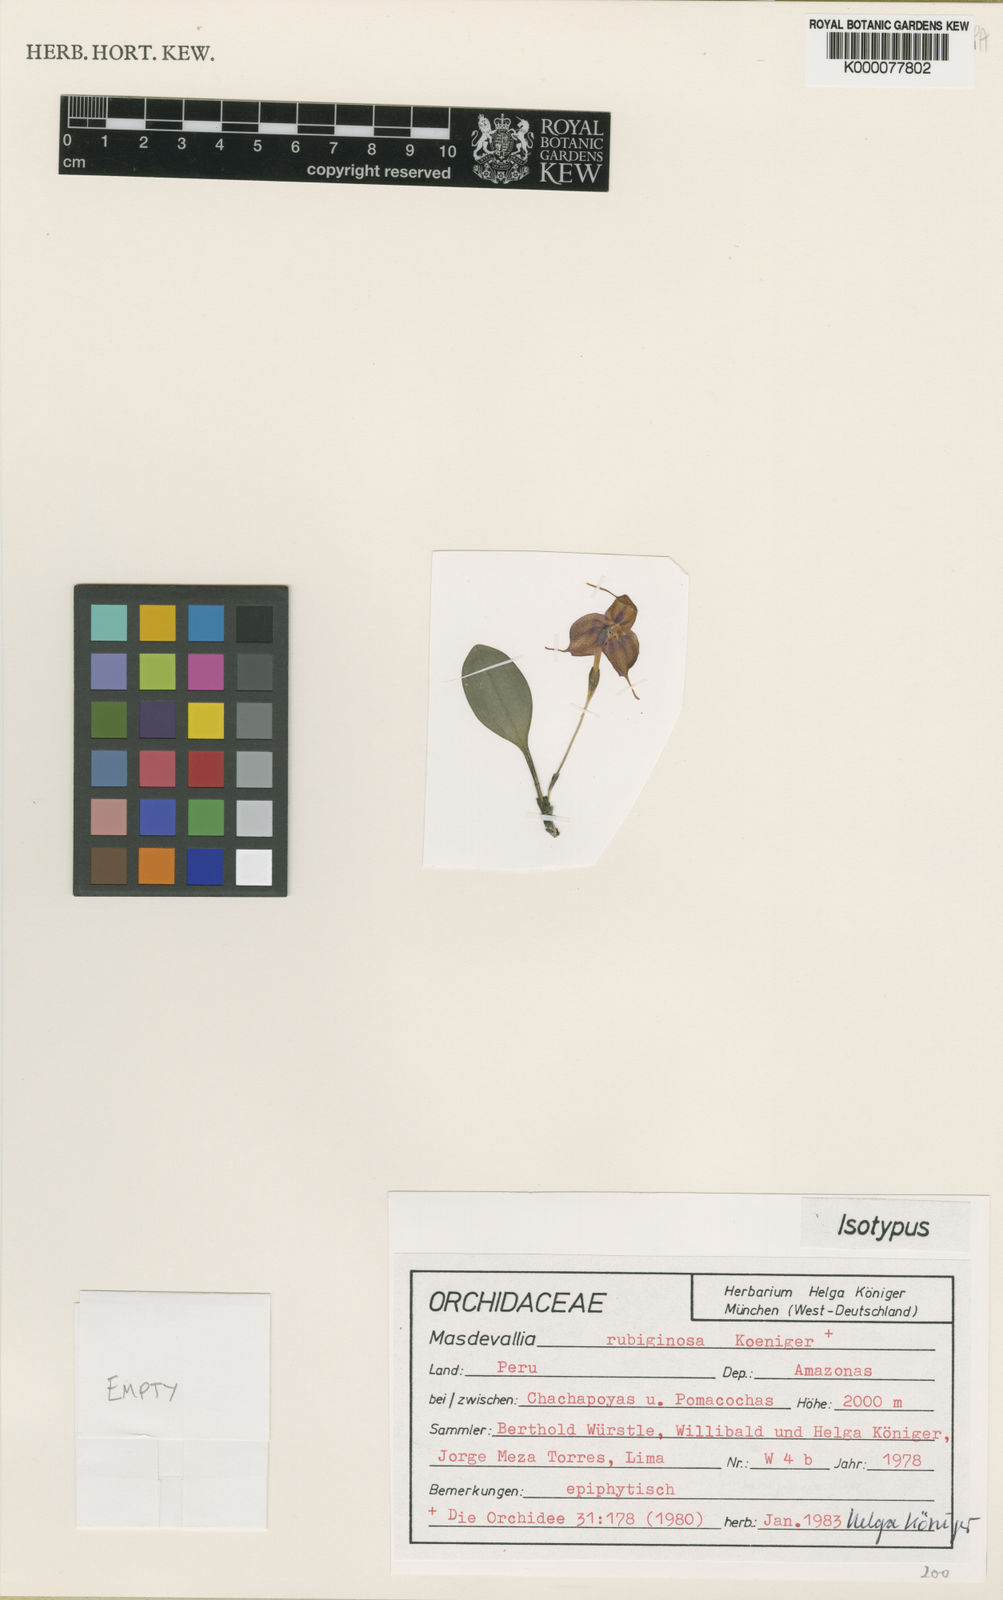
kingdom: Plantae
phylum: Tracheophyta
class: Liliopsida
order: Asparagales
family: Orchidaceae
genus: Masdevallia
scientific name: Masdevallia
